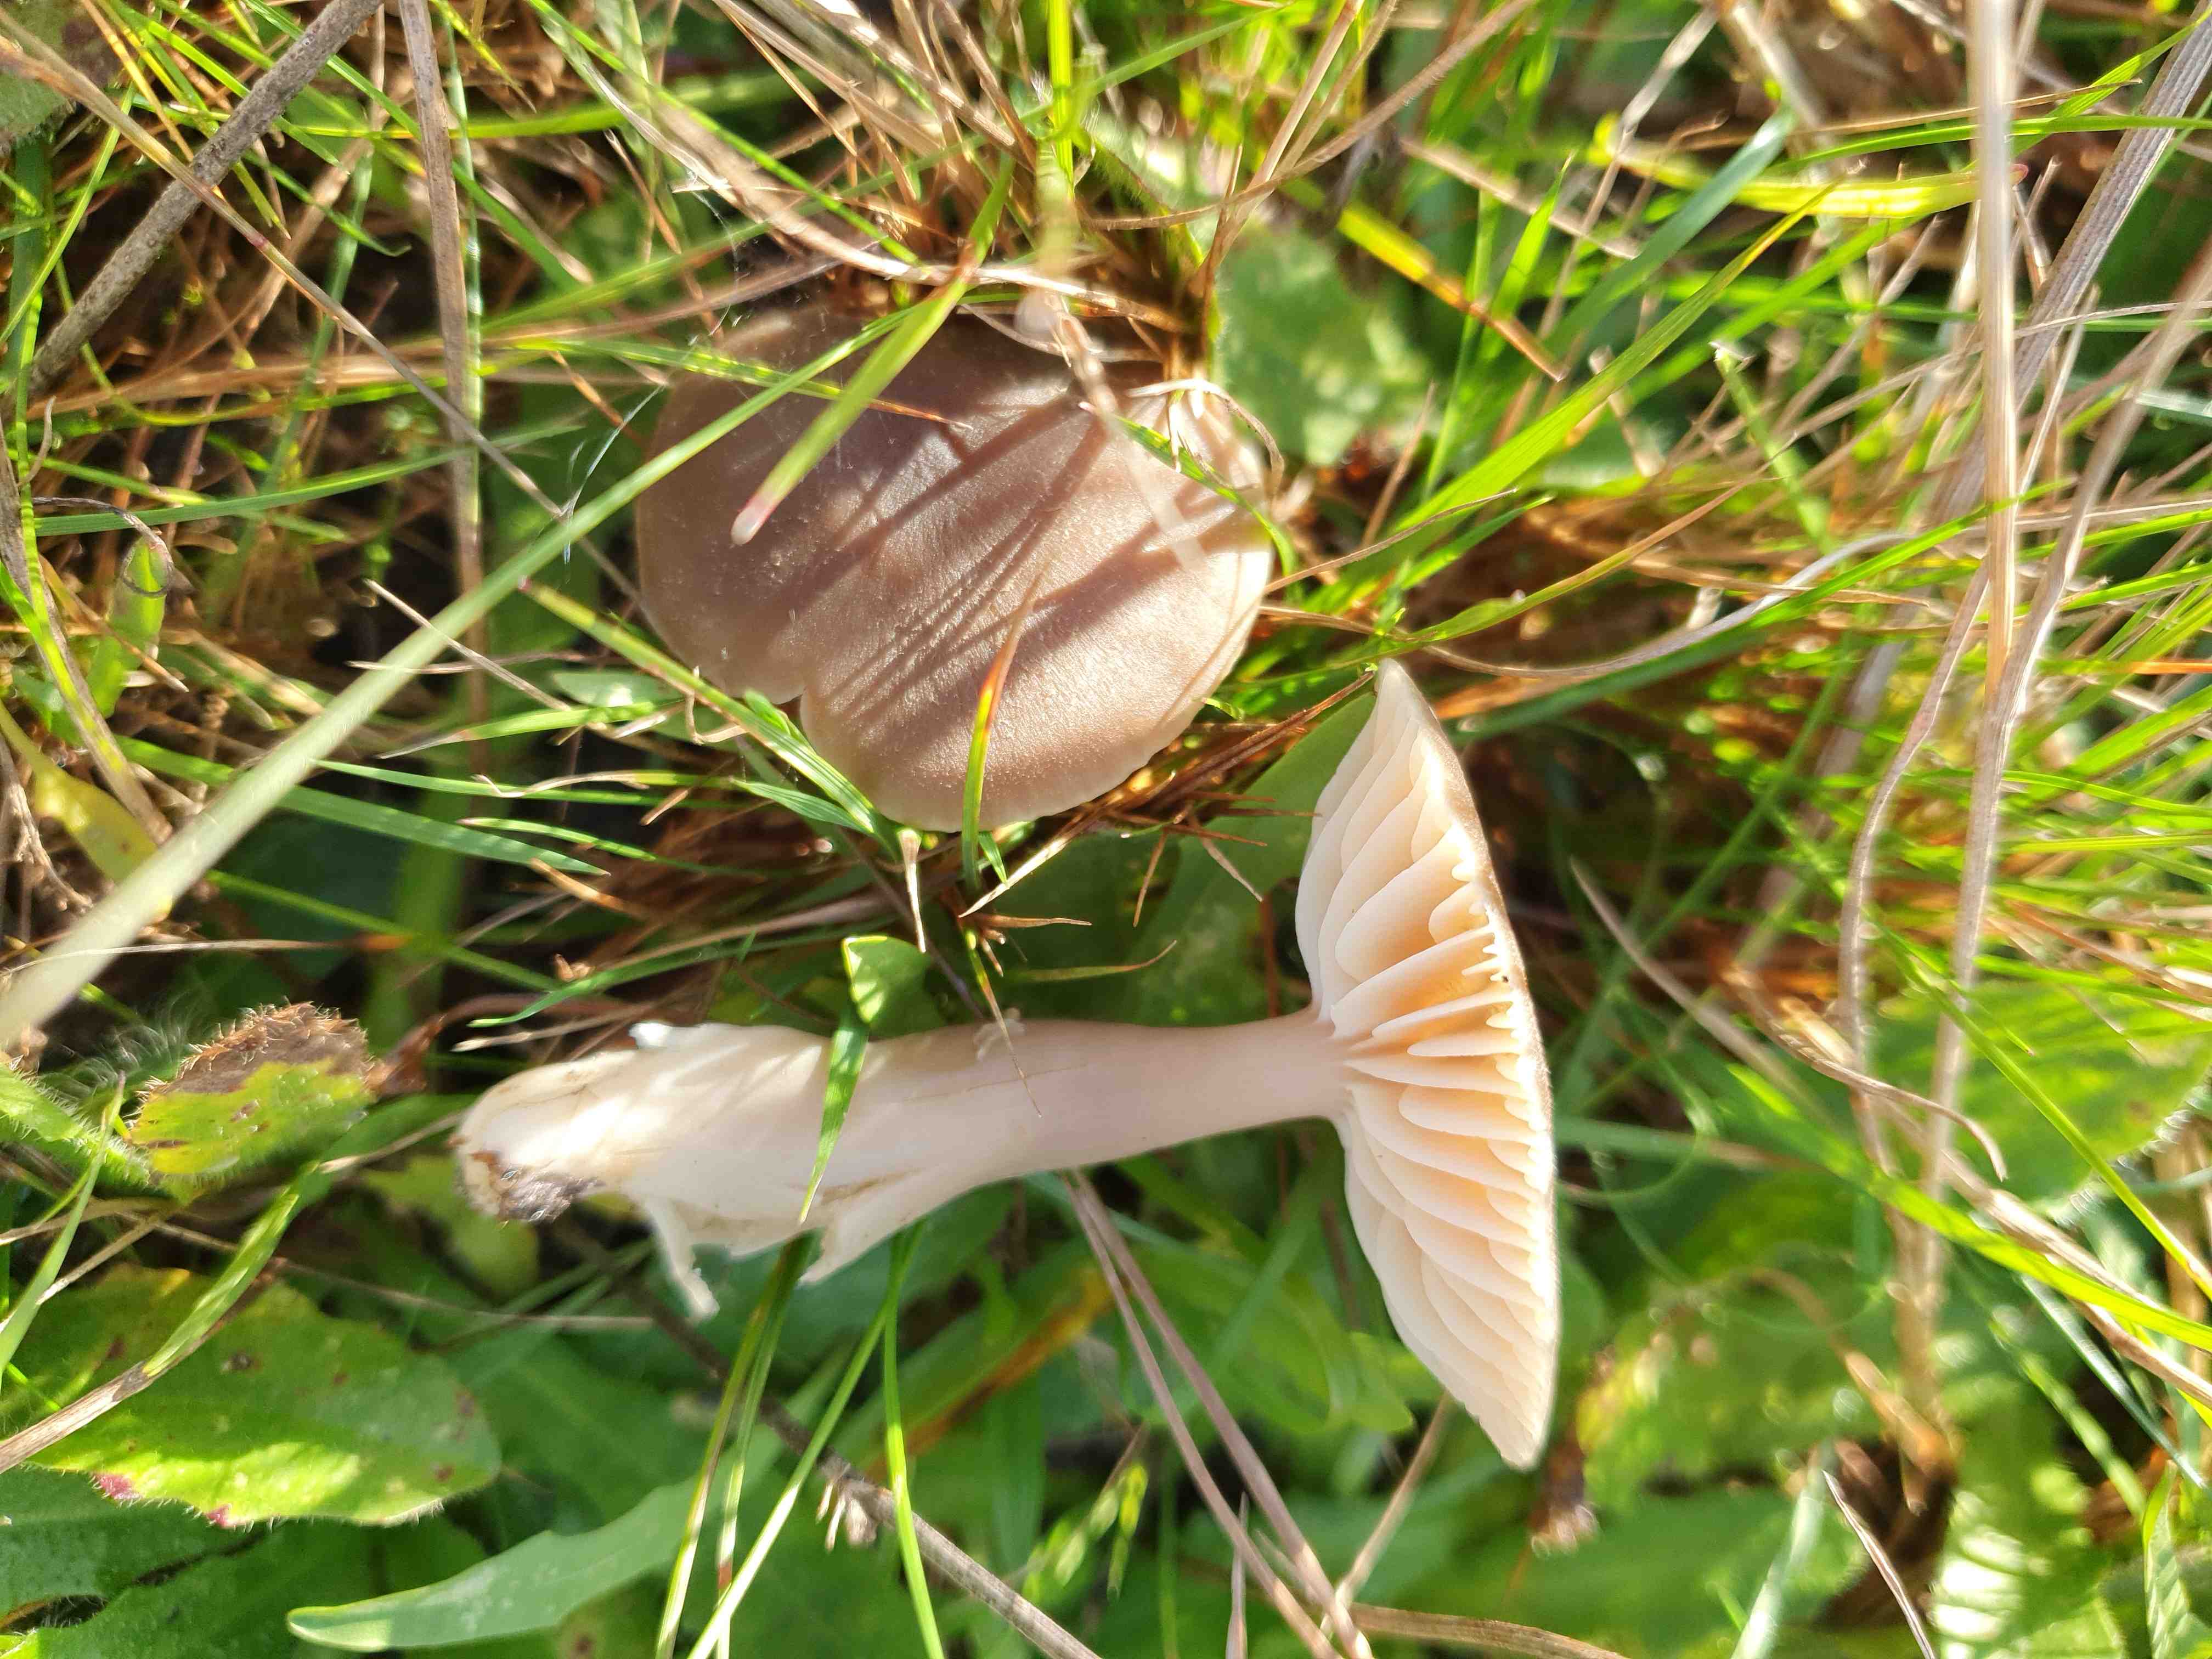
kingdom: Fungi
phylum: Basidiomycota
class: Agaricomycetes
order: Agaricales
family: Hygrophoraceae
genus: Neohygrocybe
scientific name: Neohygrocybe nitrata
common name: stinkende vokshat
